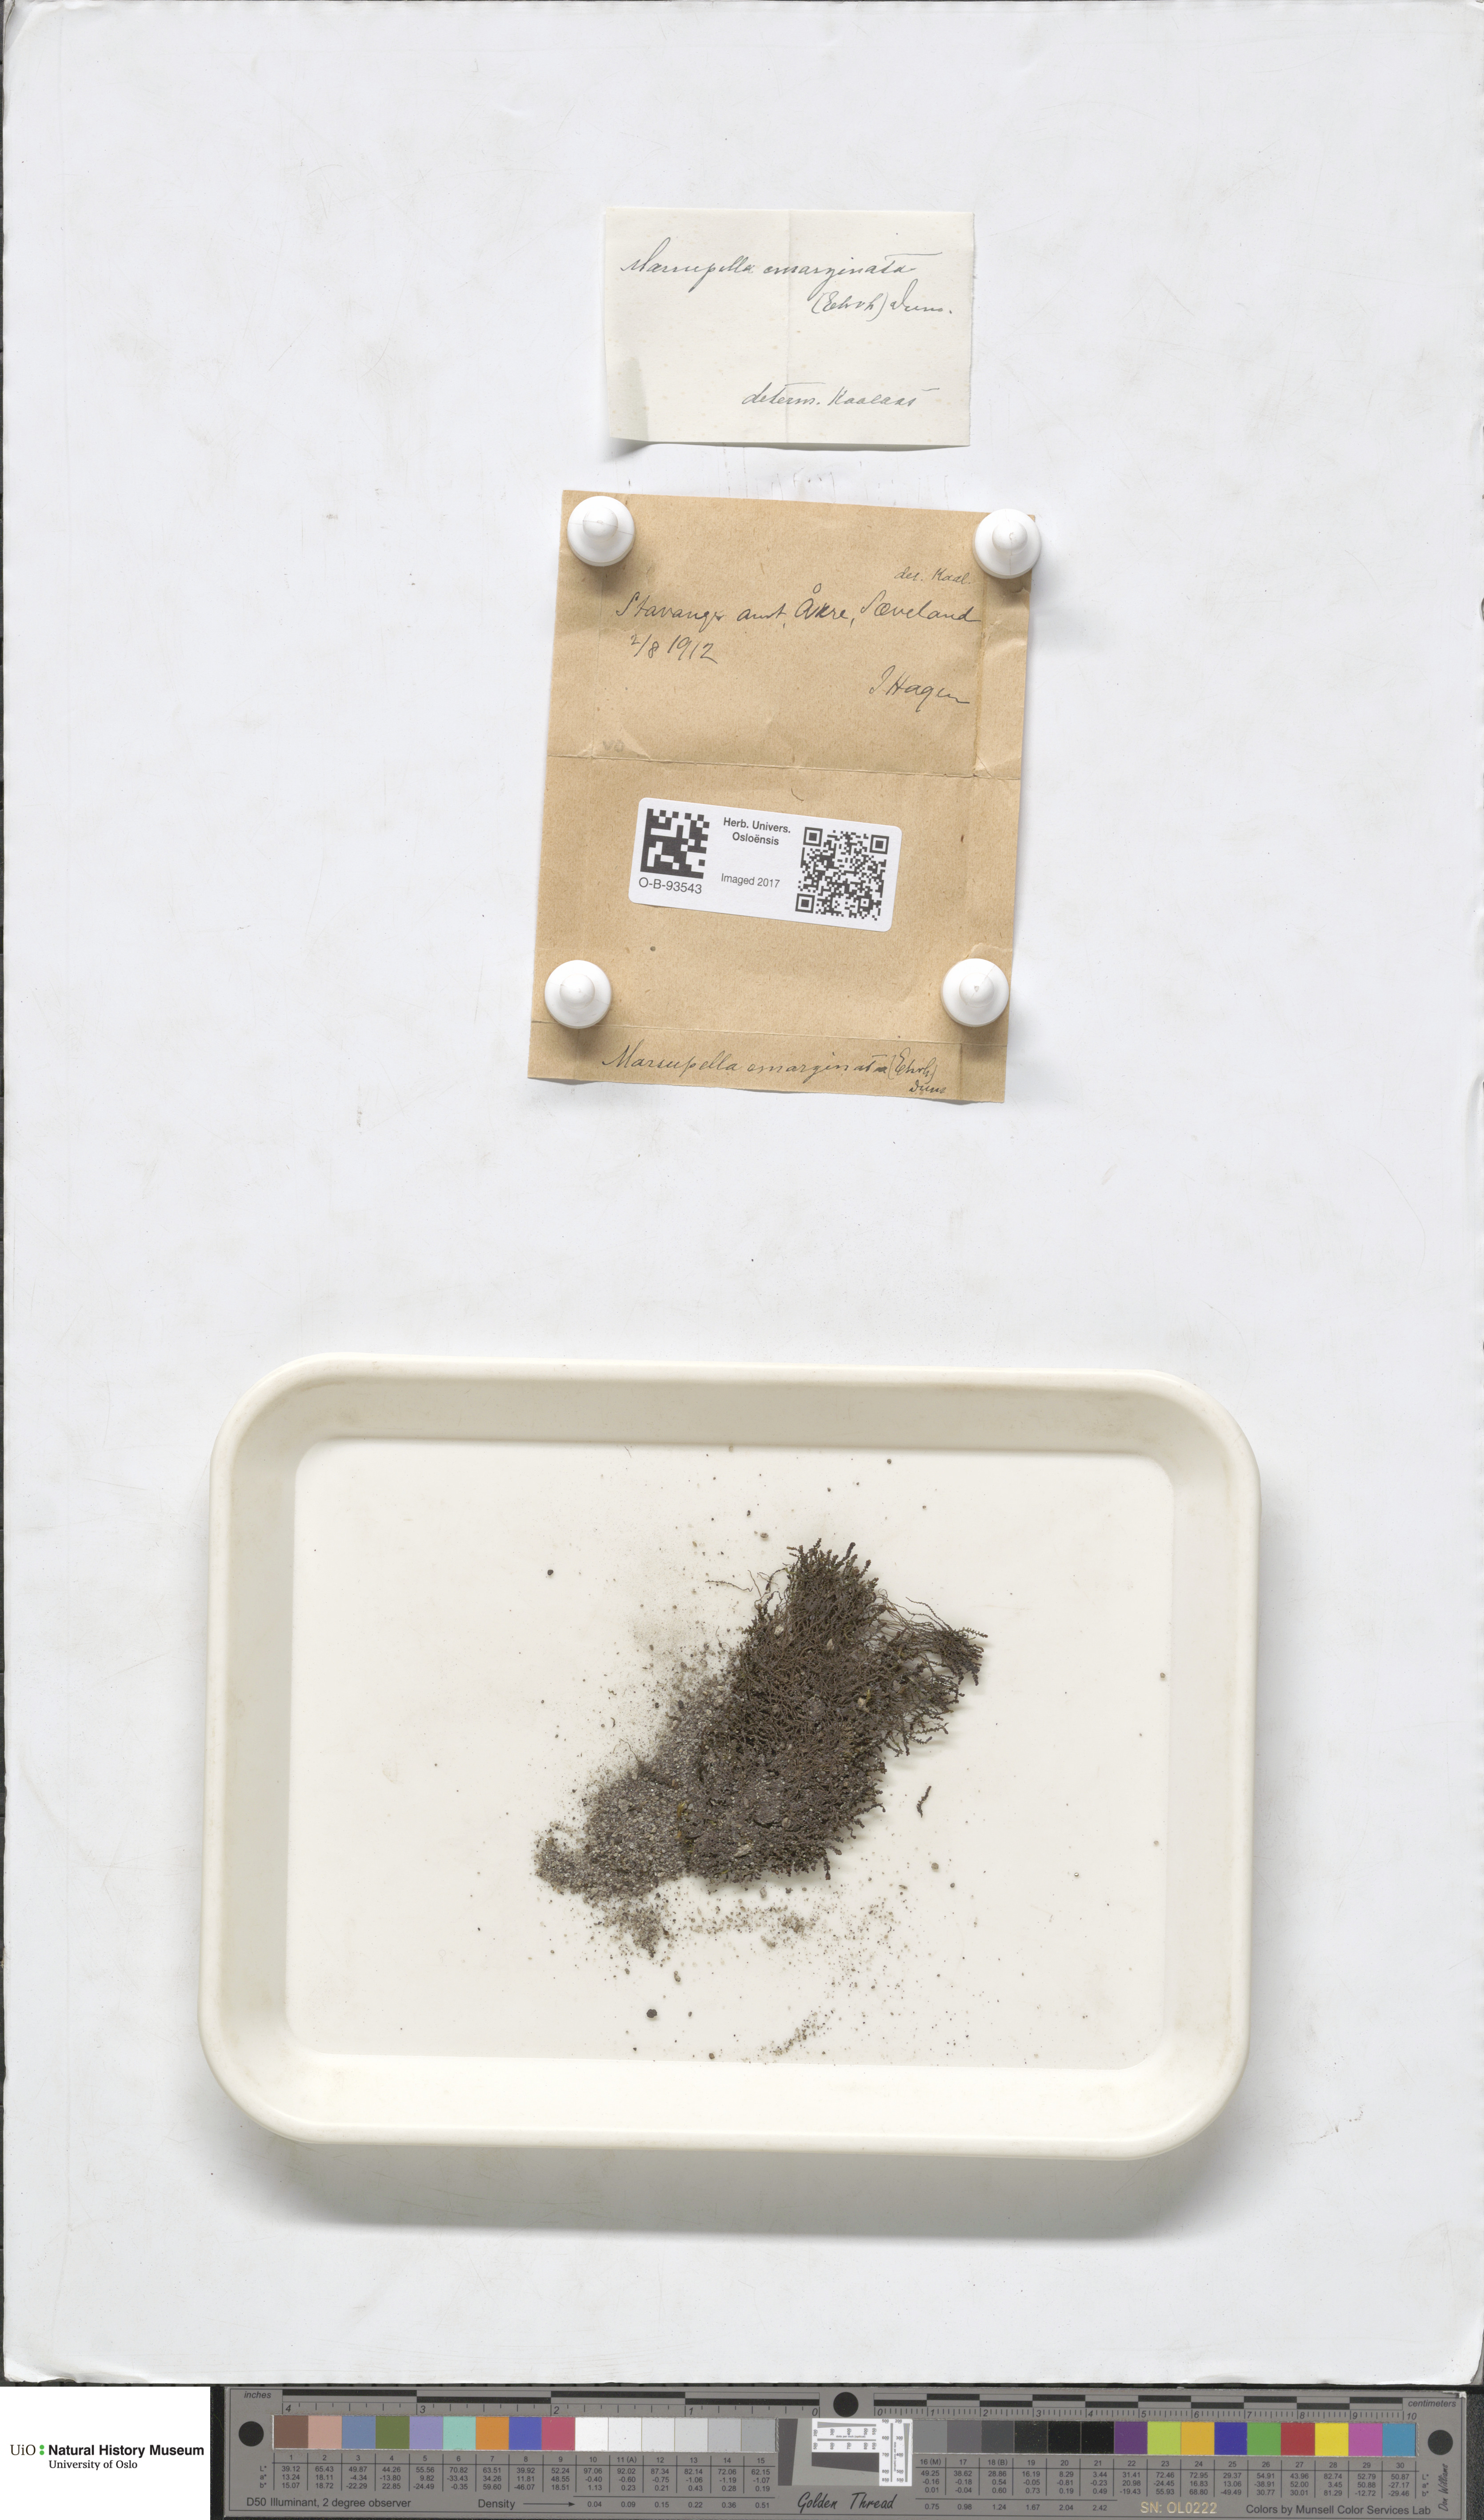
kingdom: Plantae
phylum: Marchantiophyta
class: Jungermanniopsida
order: Jungermanniales
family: Gymnomitriaceae
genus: Marsupella
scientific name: Marsupella emarginata
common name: Notched rustwort
